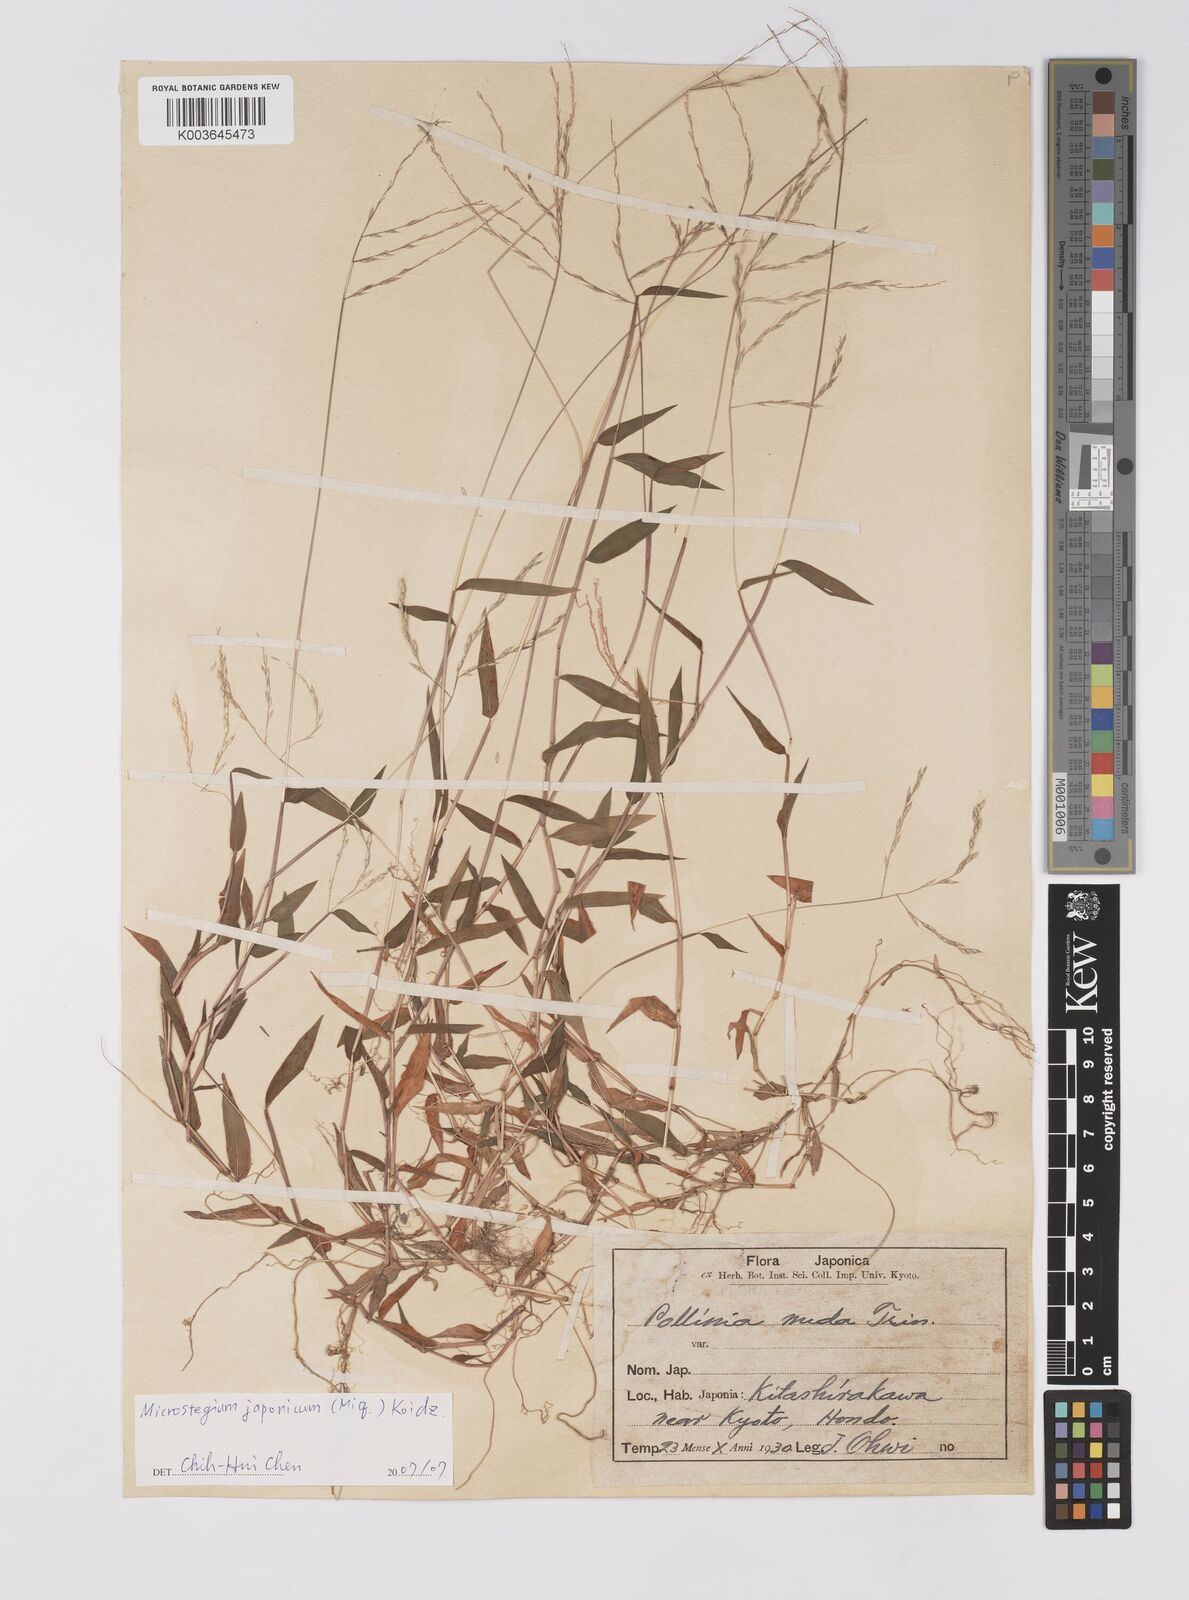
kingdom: Plantae
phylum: Tracheophyta
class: Liliopsida
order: Poales
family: Poaceae
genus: Microstegium
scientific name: Microstegium japonicum
